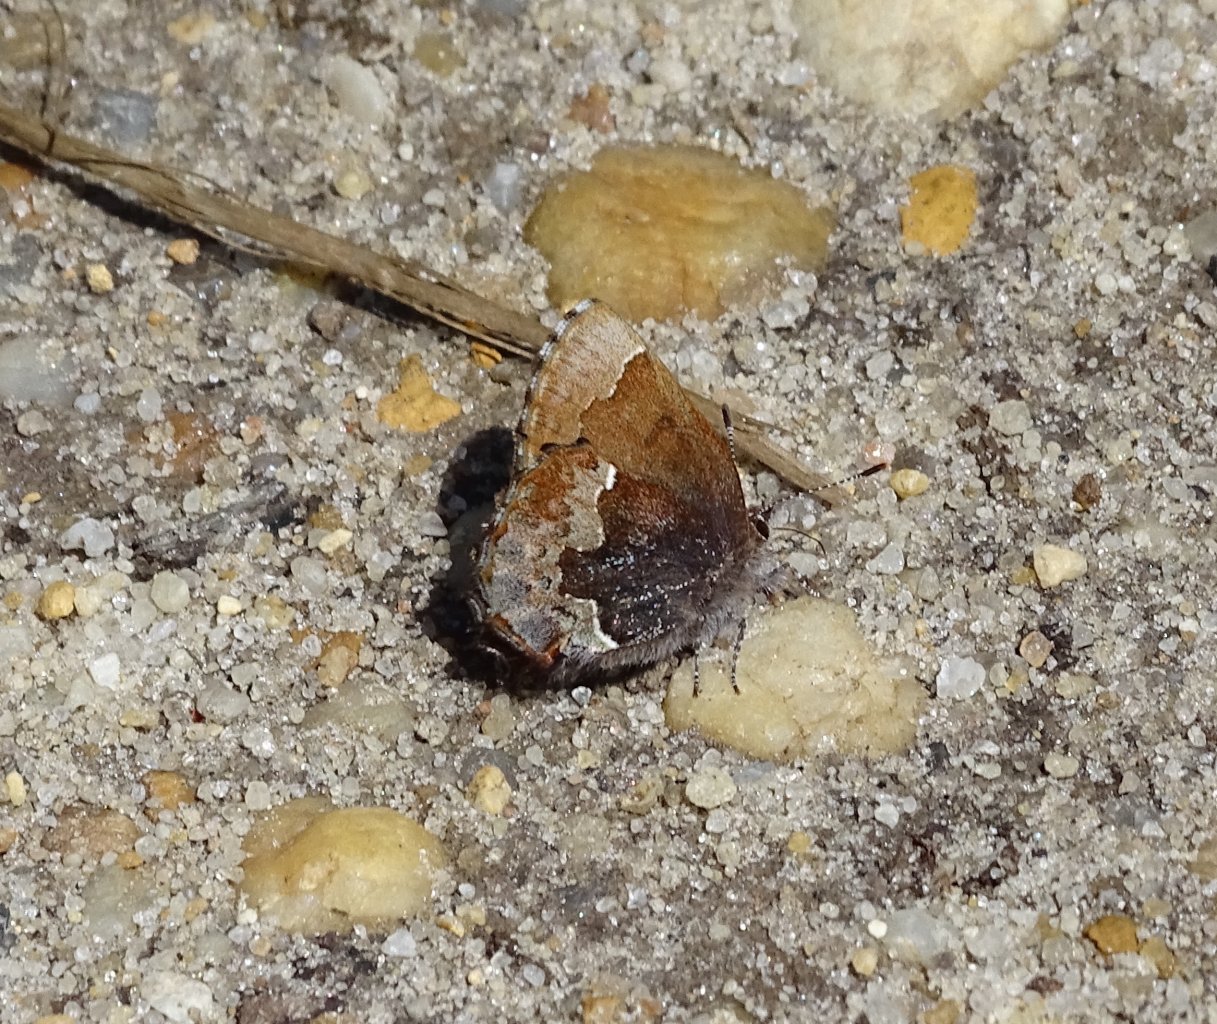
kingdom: Animalia
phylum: Arthropoda
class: Insecta
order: Lepidoptera
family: Lycaenidae
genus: Incisalia
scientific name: Incisalia henrici
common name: Henry's Elfin
